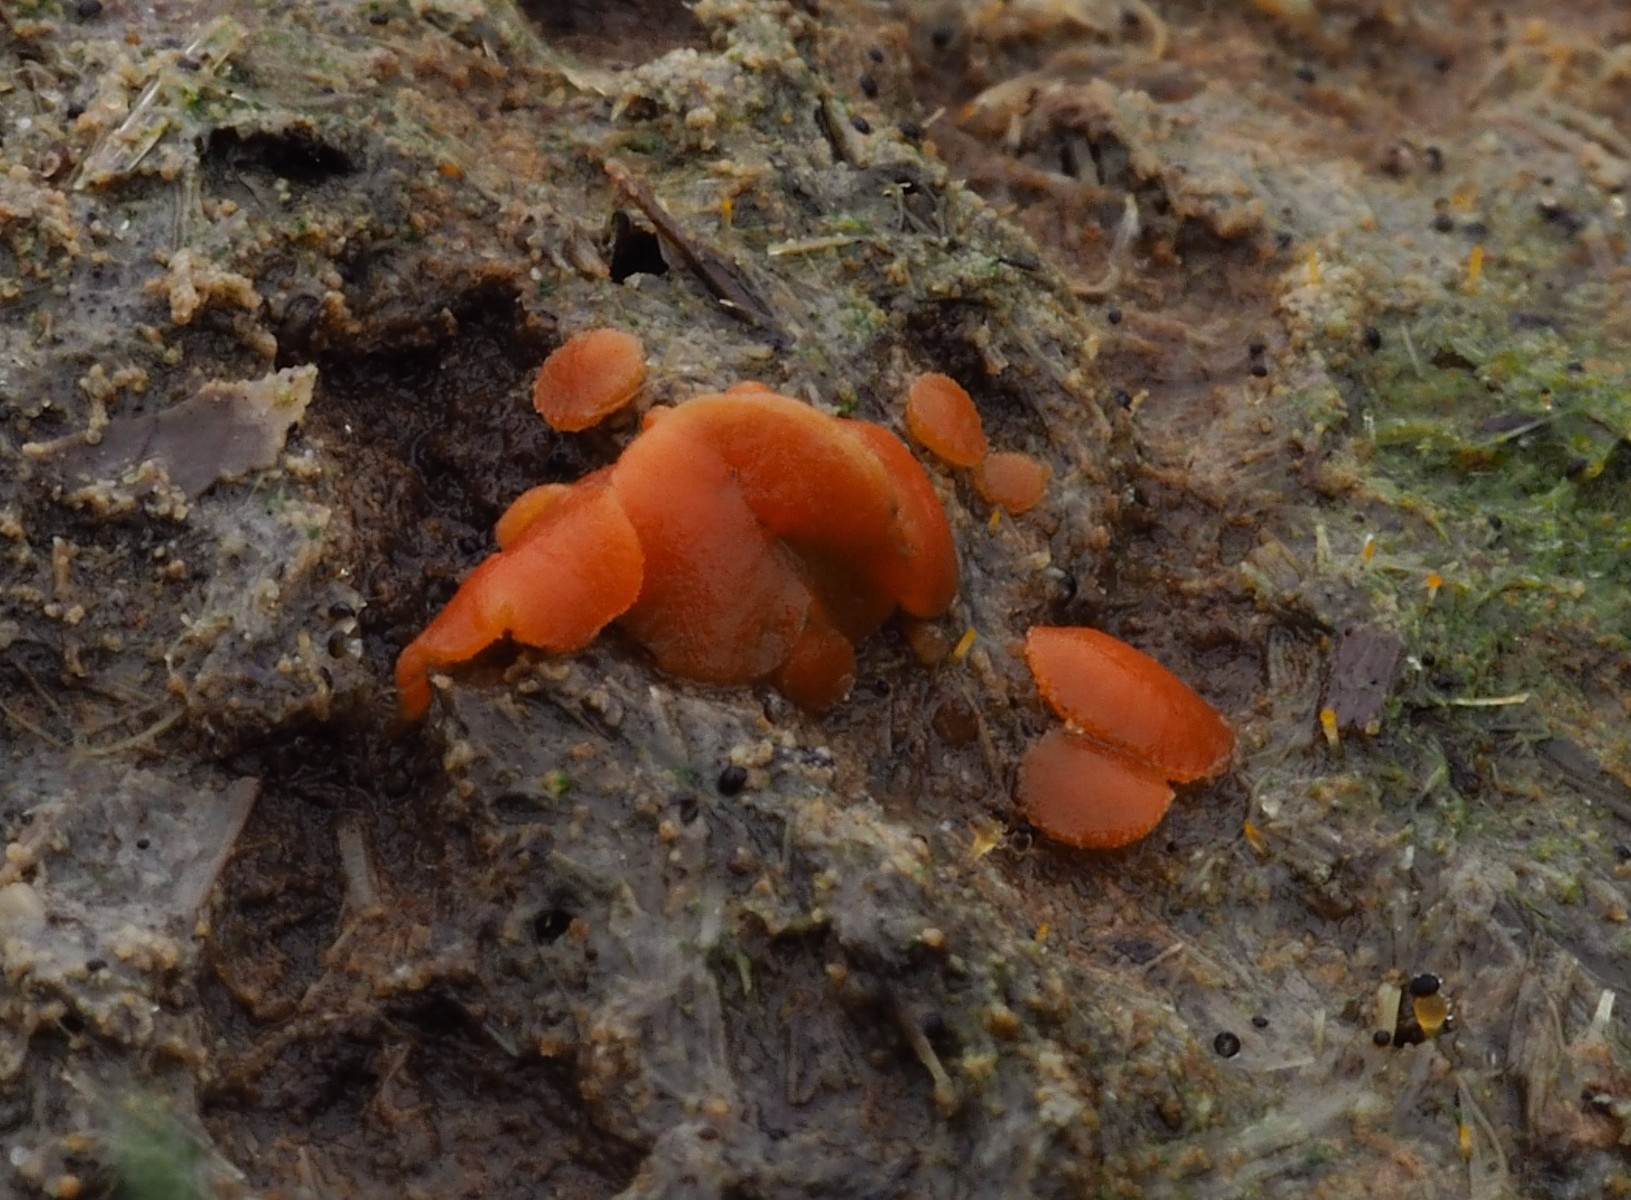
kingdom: Fungi
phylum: Ascomycota
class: Pezizomycetes
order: Pezizales
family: Pyronemataceae
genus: Cheilymenia
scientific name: Cheilymenia granulata
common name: møgbæger
